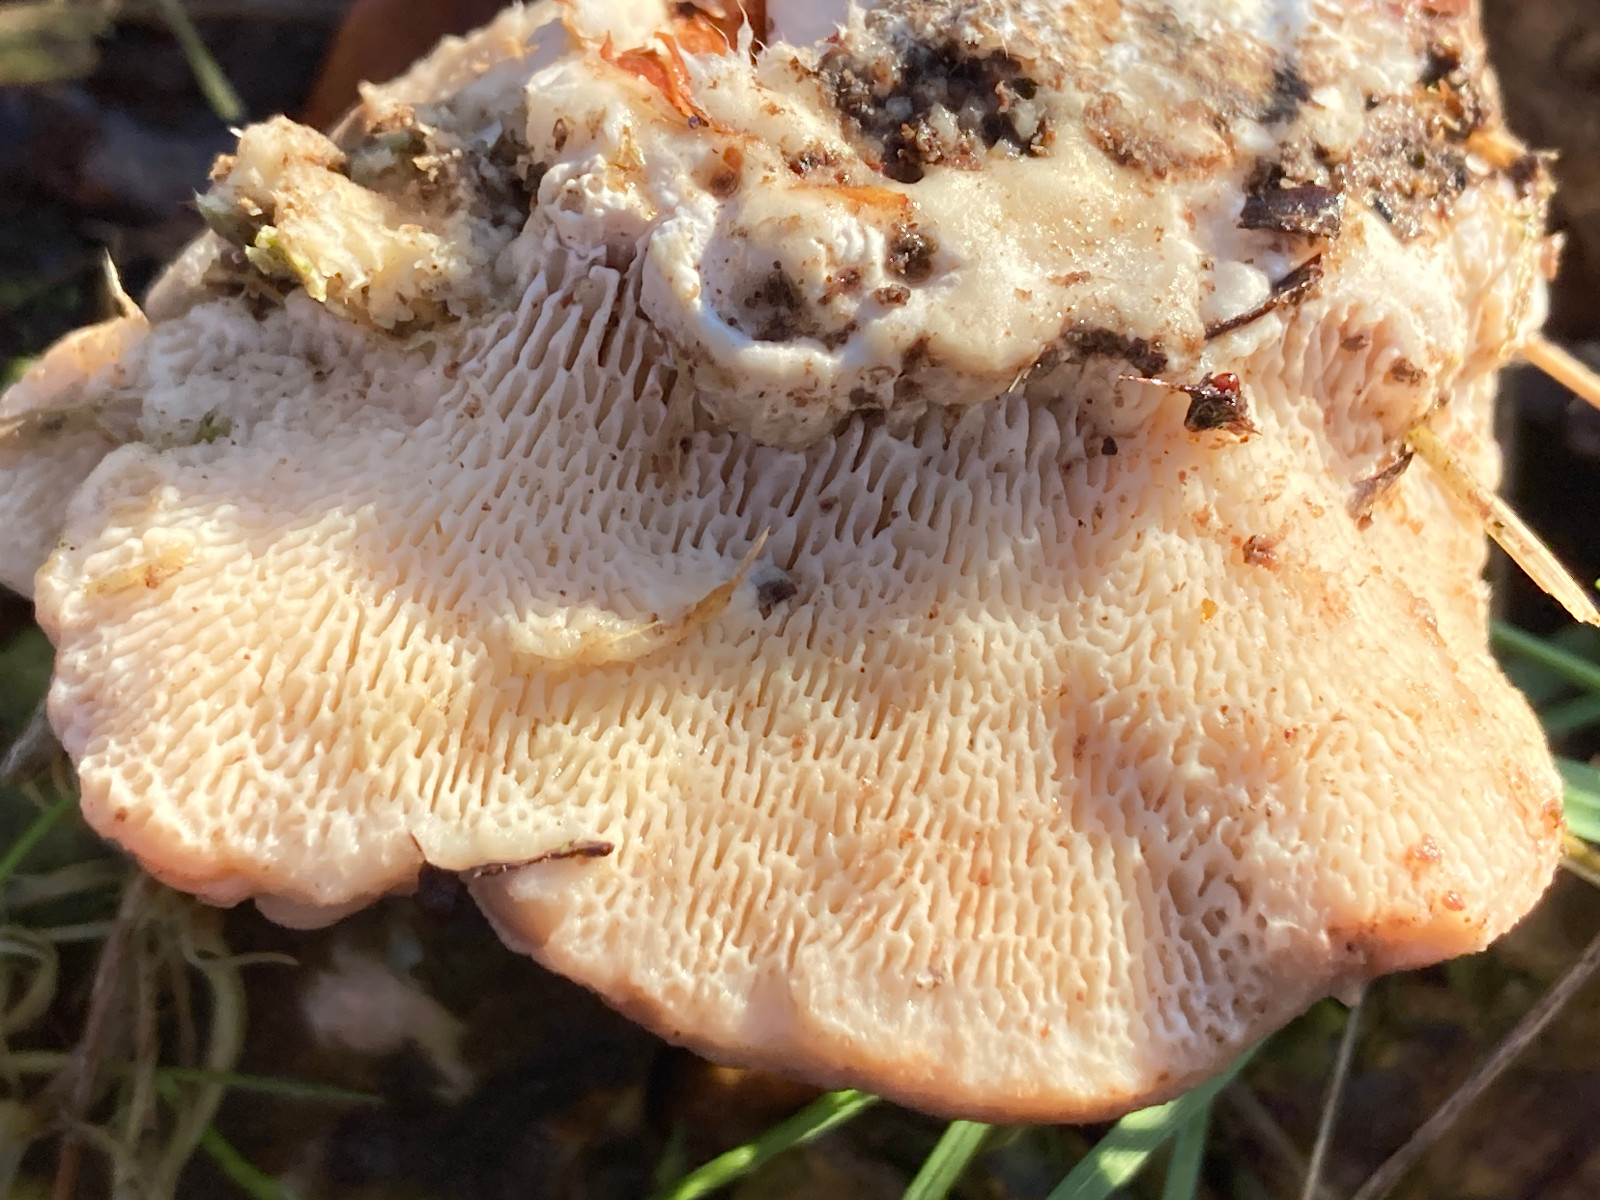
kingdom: Fungi
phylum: Basidiomycota
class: Agaricomycetes
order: Polyporales
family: Polyporaceae
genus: Trametes
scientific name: Trametes gibbosa
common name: puklet læderporesvamp
